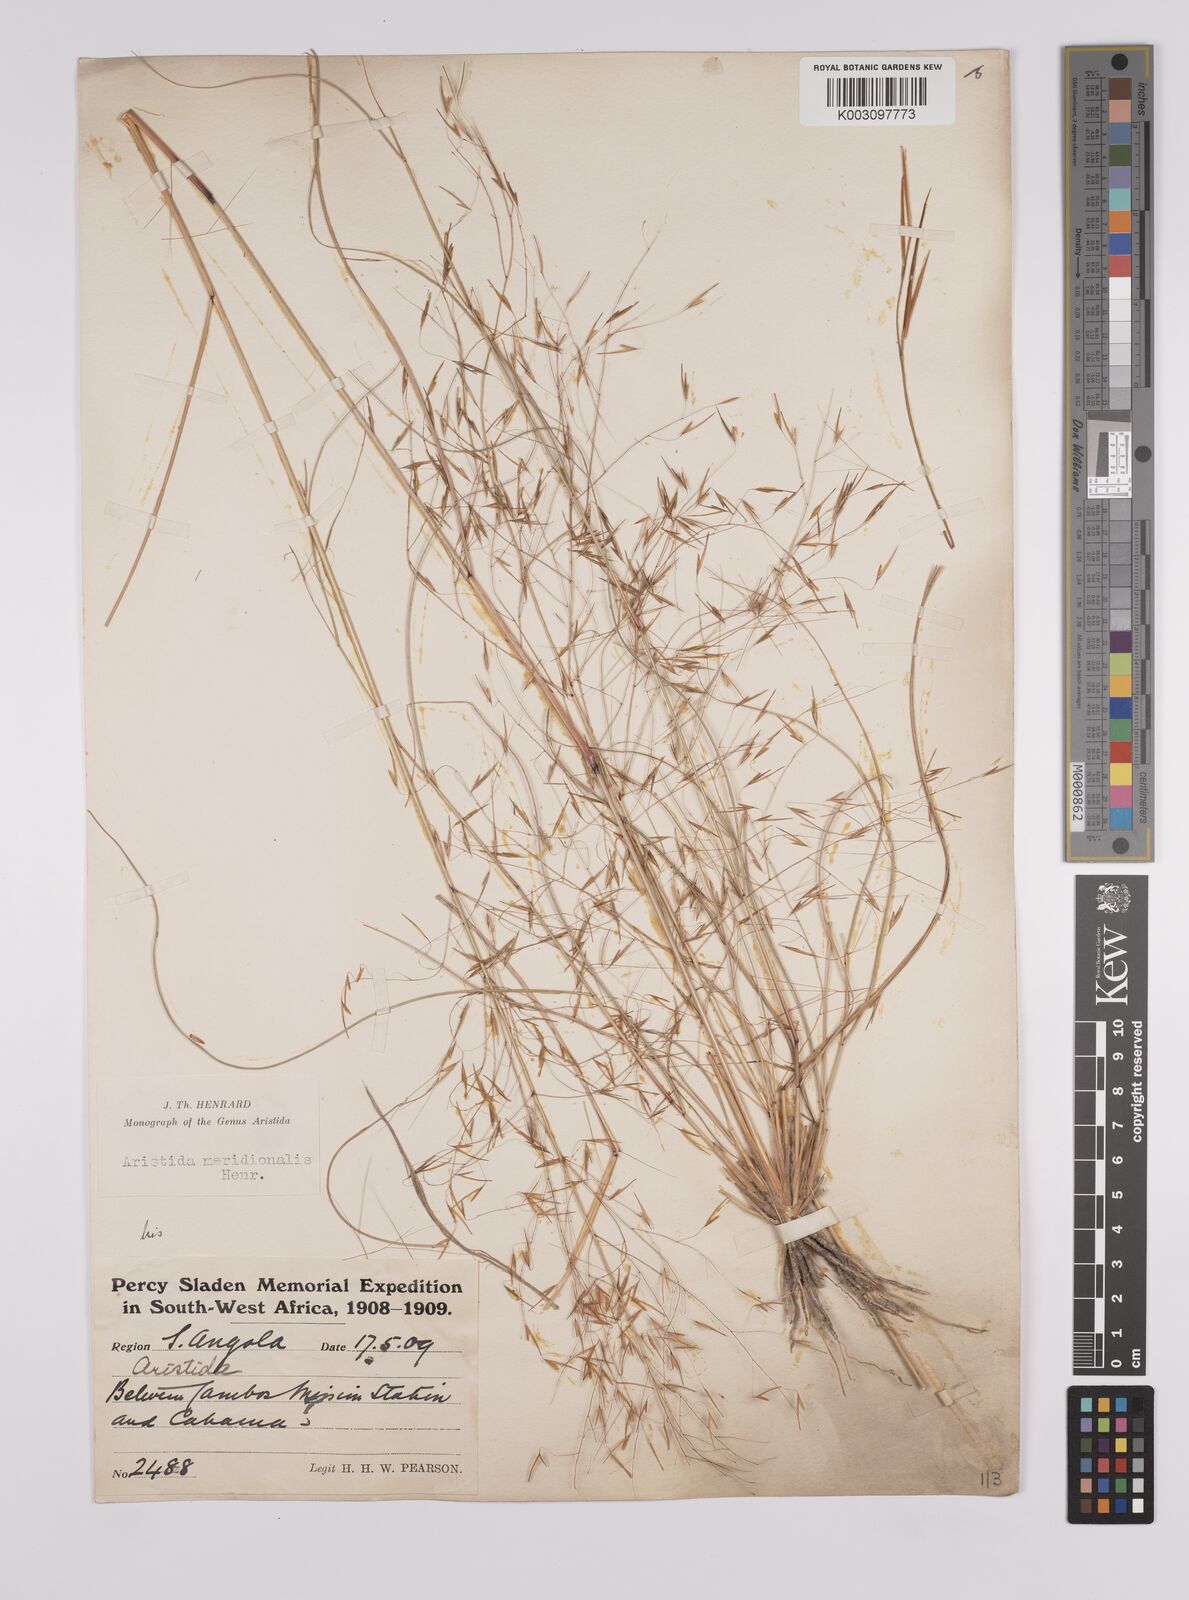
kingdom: Plantae
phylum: Tracheophyta
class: Liliopsida
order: Poales
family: Poaceae
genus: Aristida
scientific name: Aristida meridionalis
